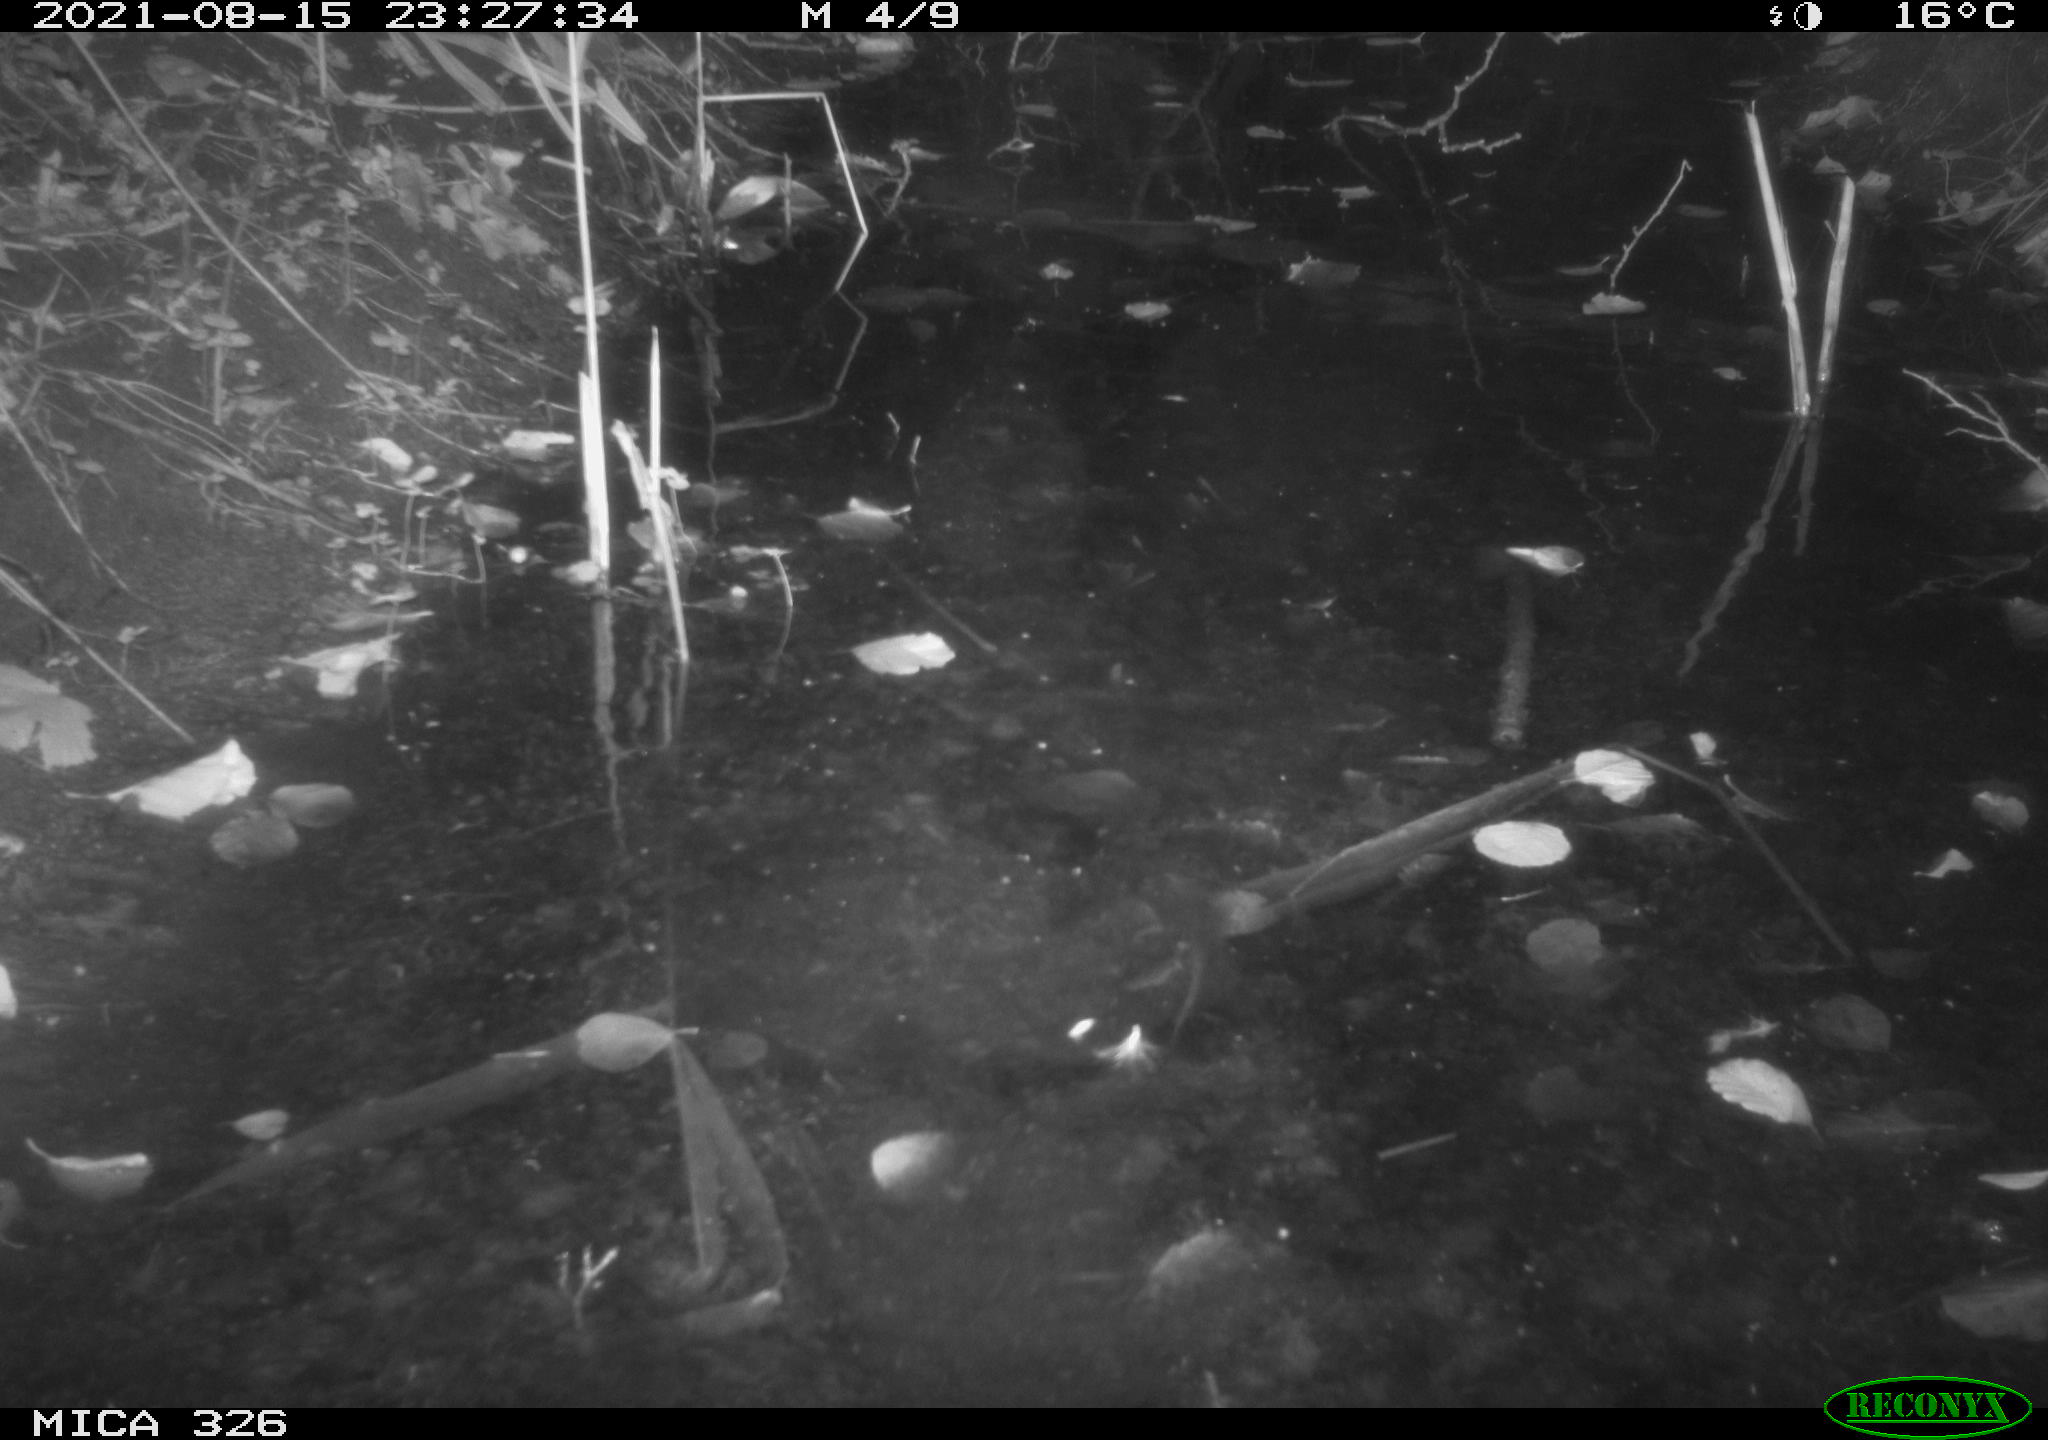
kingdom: Animalia
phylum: Chordata
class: Mammalia
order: Rodentia
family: Myocastoridae
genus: Myocastor
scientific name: Myocastor coypus
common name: Coypu
